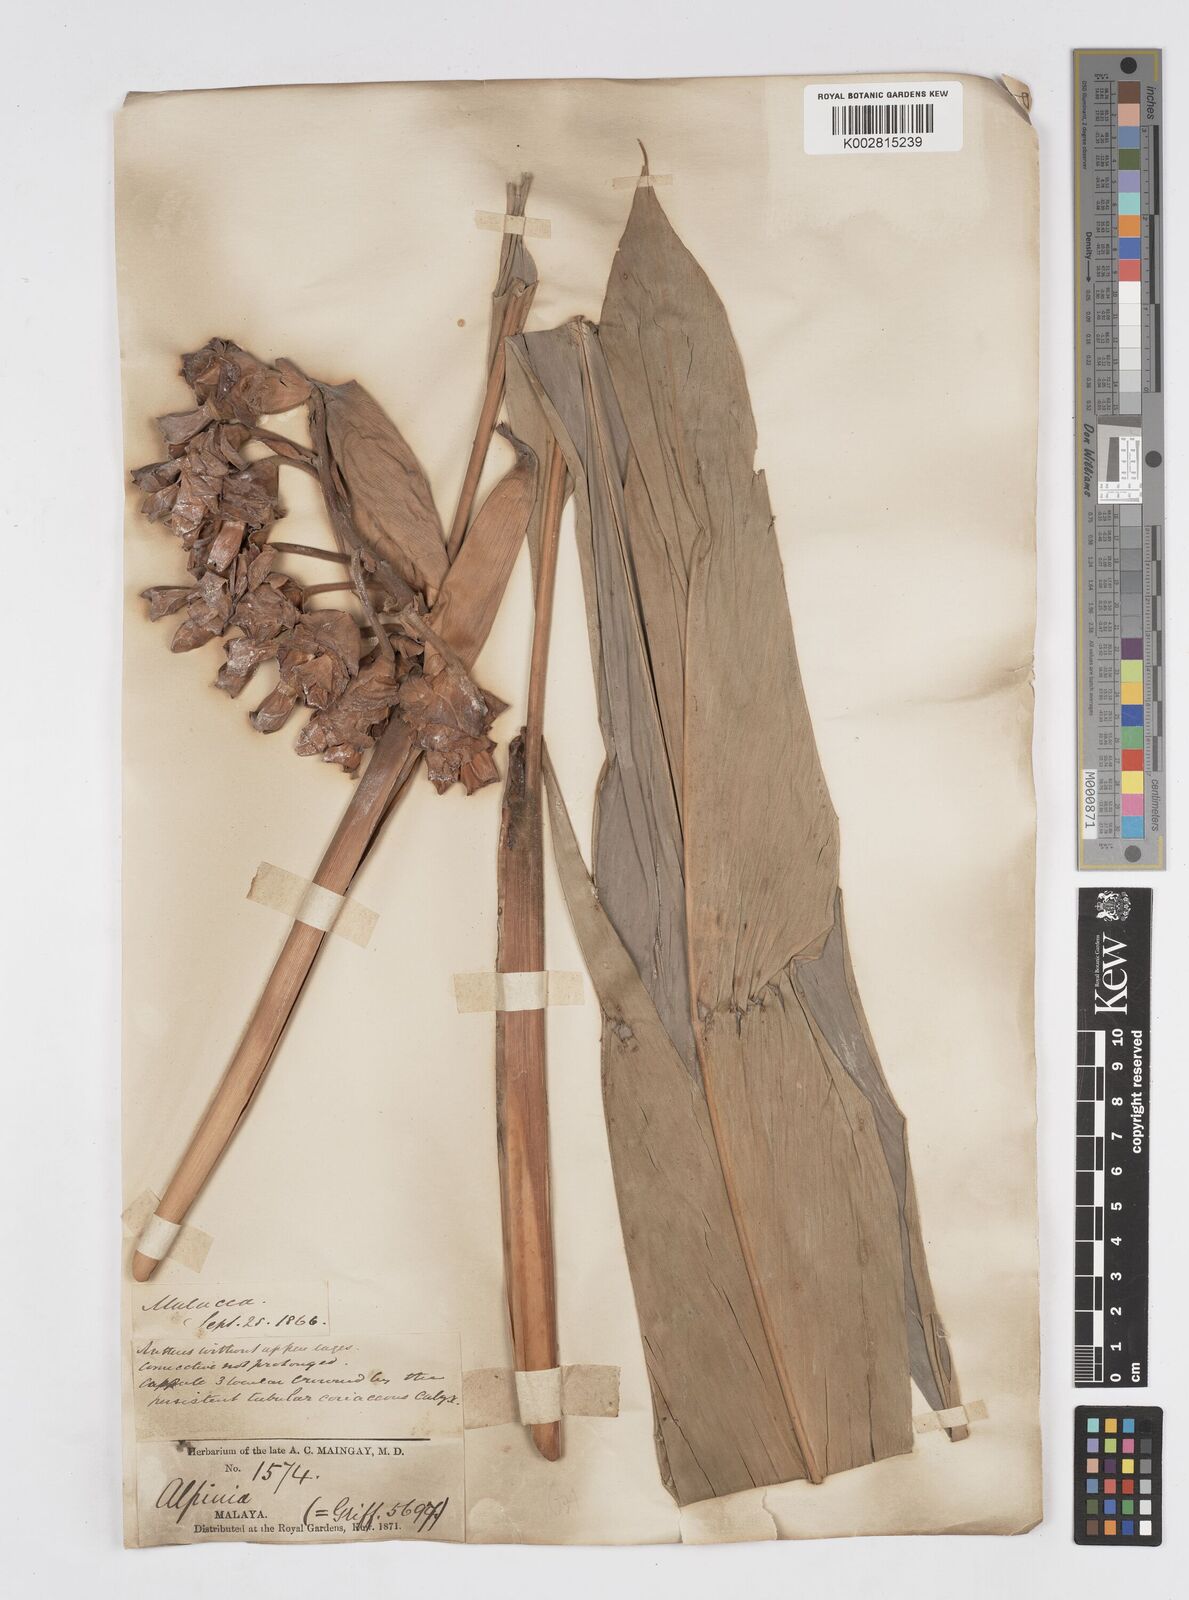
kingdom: Plantae
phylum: Tracheophyta
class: Liliopsida
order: Zingiberales
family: Zingiberaceae
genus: Alpinia
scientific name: Alpinia javanica
